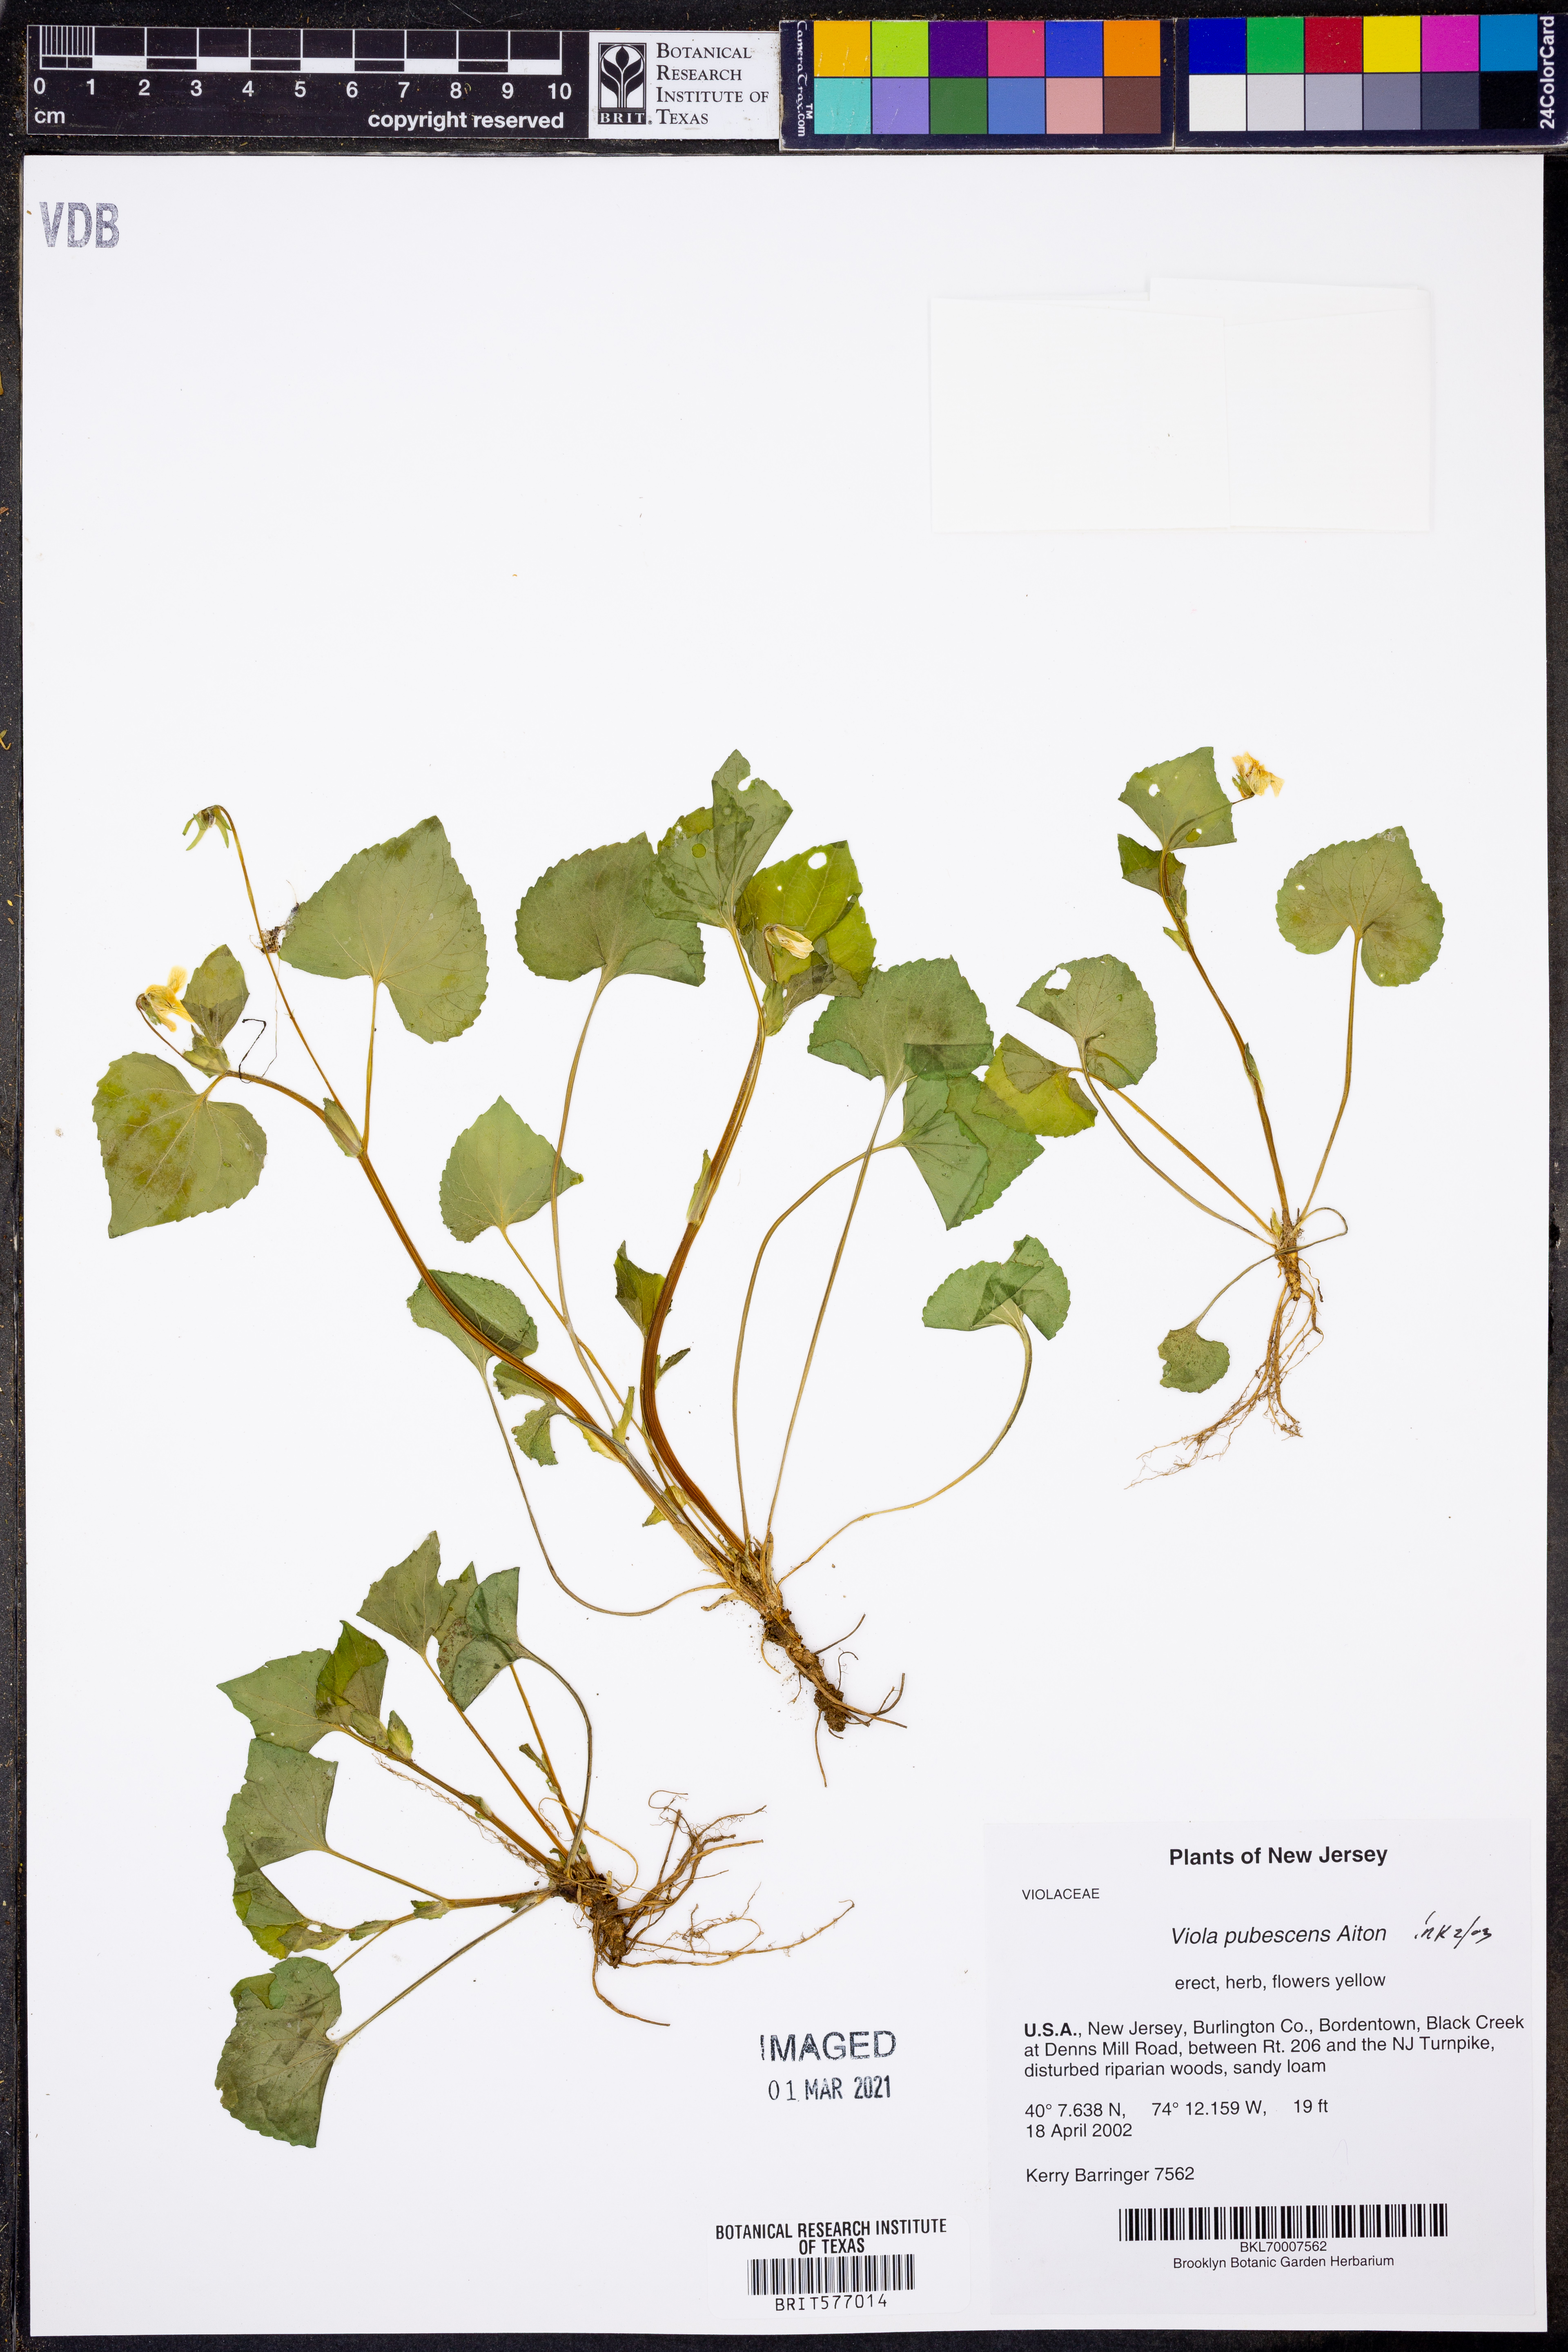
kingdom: Plantae
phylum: Tracheophyta
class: Magnoliopsida
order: Malpighiales
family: Violaceae
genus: Viola
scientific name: Viola pubescens
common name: Yellow forest violet
